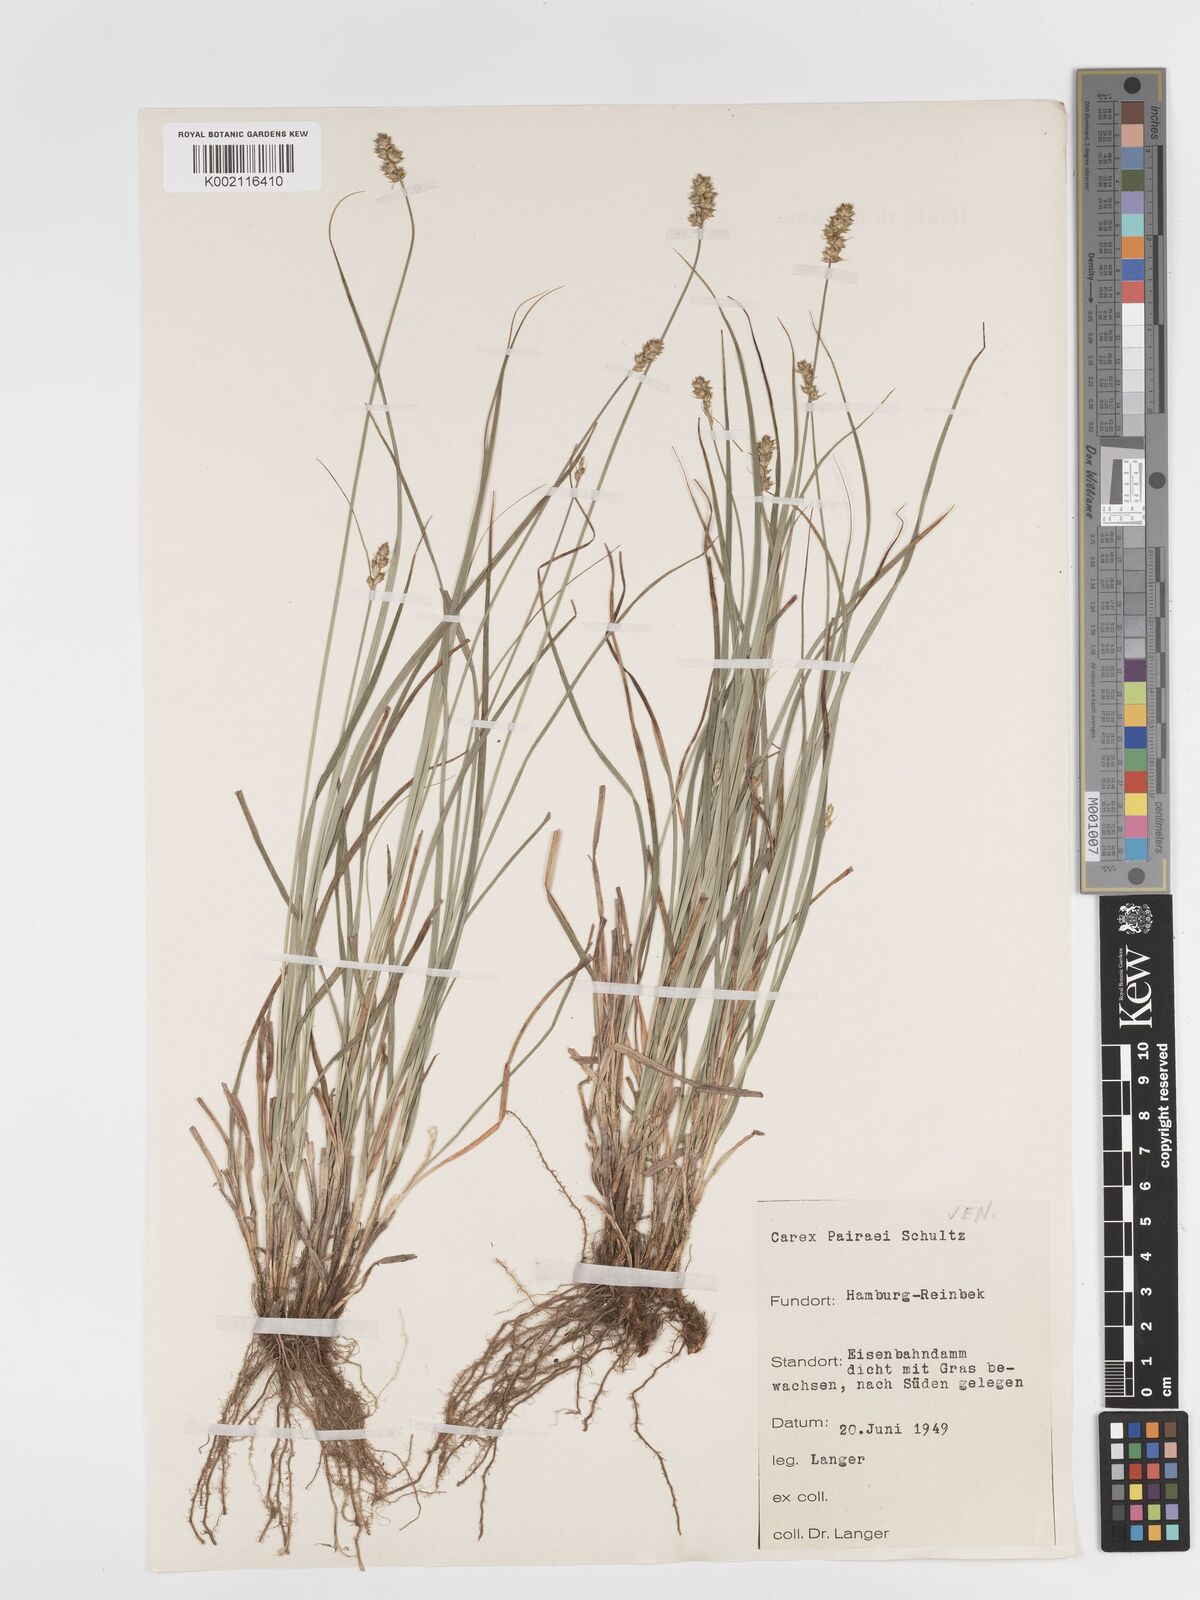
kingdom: Plantae
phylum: Tracheophyta
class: Liliopsida
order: Poales
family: Cyperaceae
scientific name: Cyperaceae
